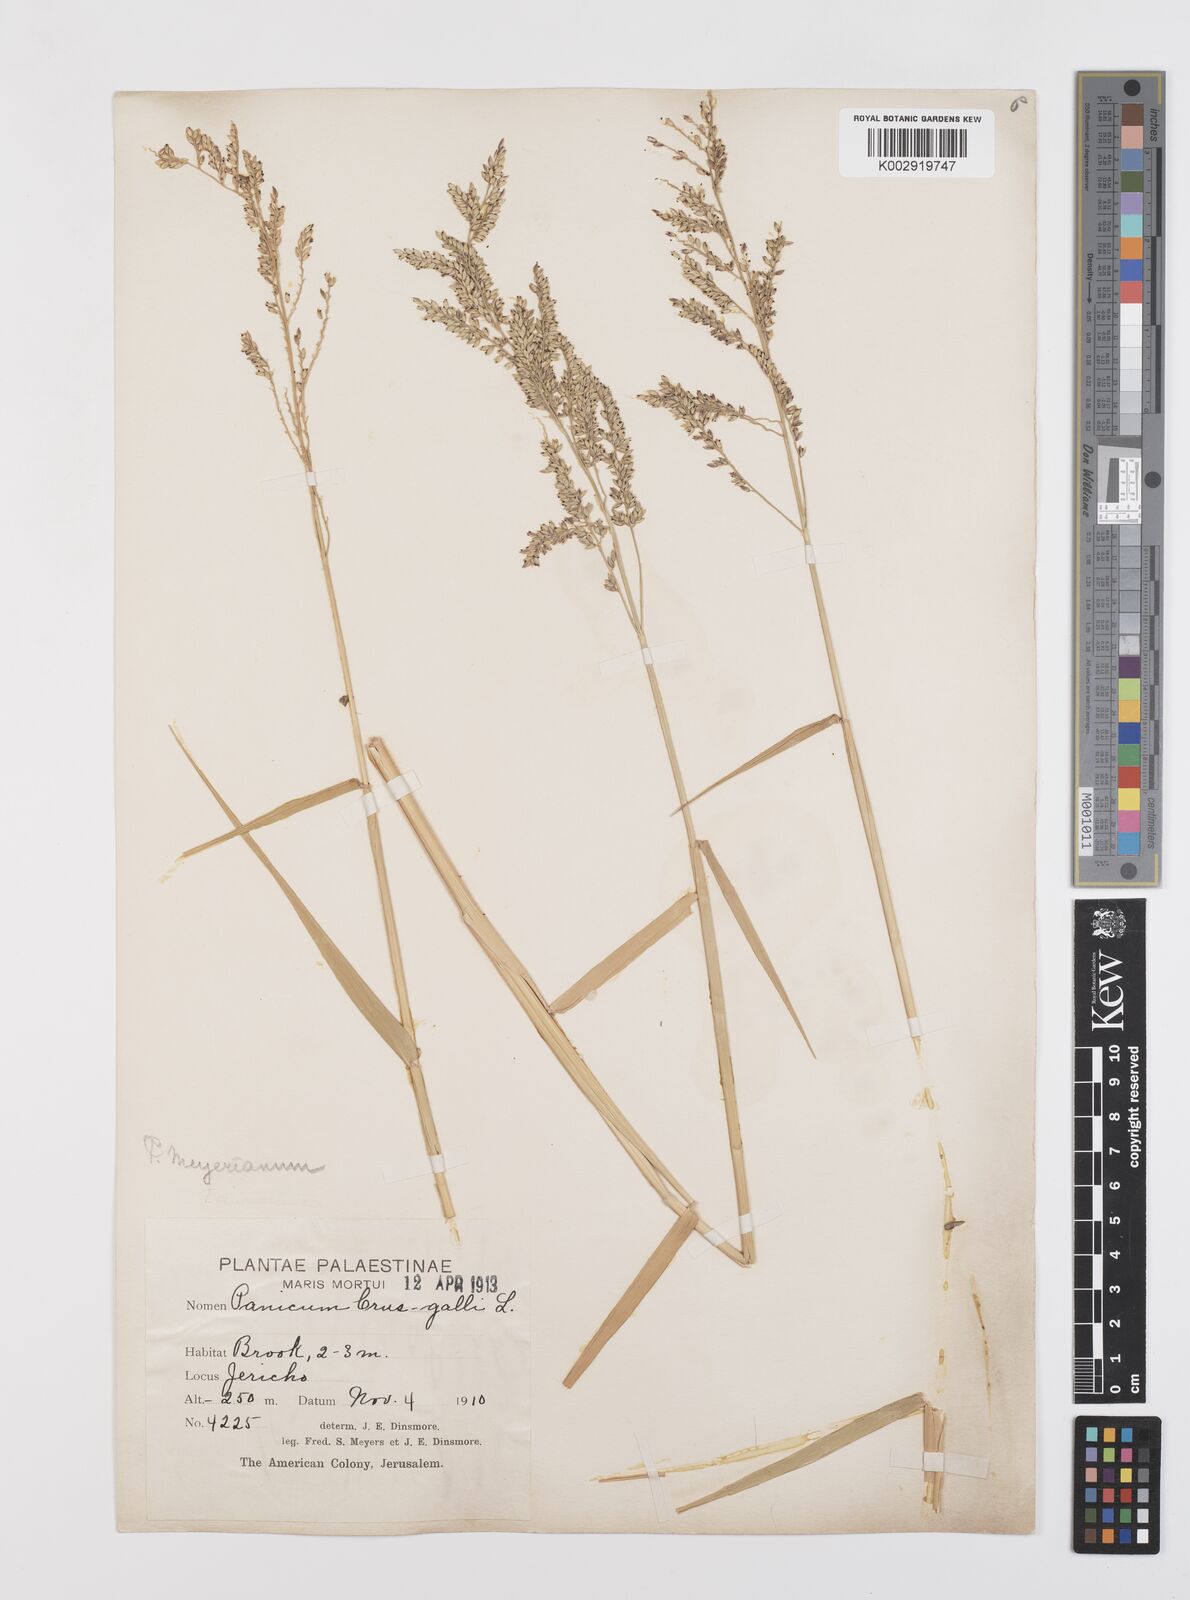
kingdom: Plantae
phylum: Tracheophyta
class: Liliopsida
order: Poales
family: Poaceae
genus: Urochloa
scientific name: Urochloa mutica
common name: Para grass
